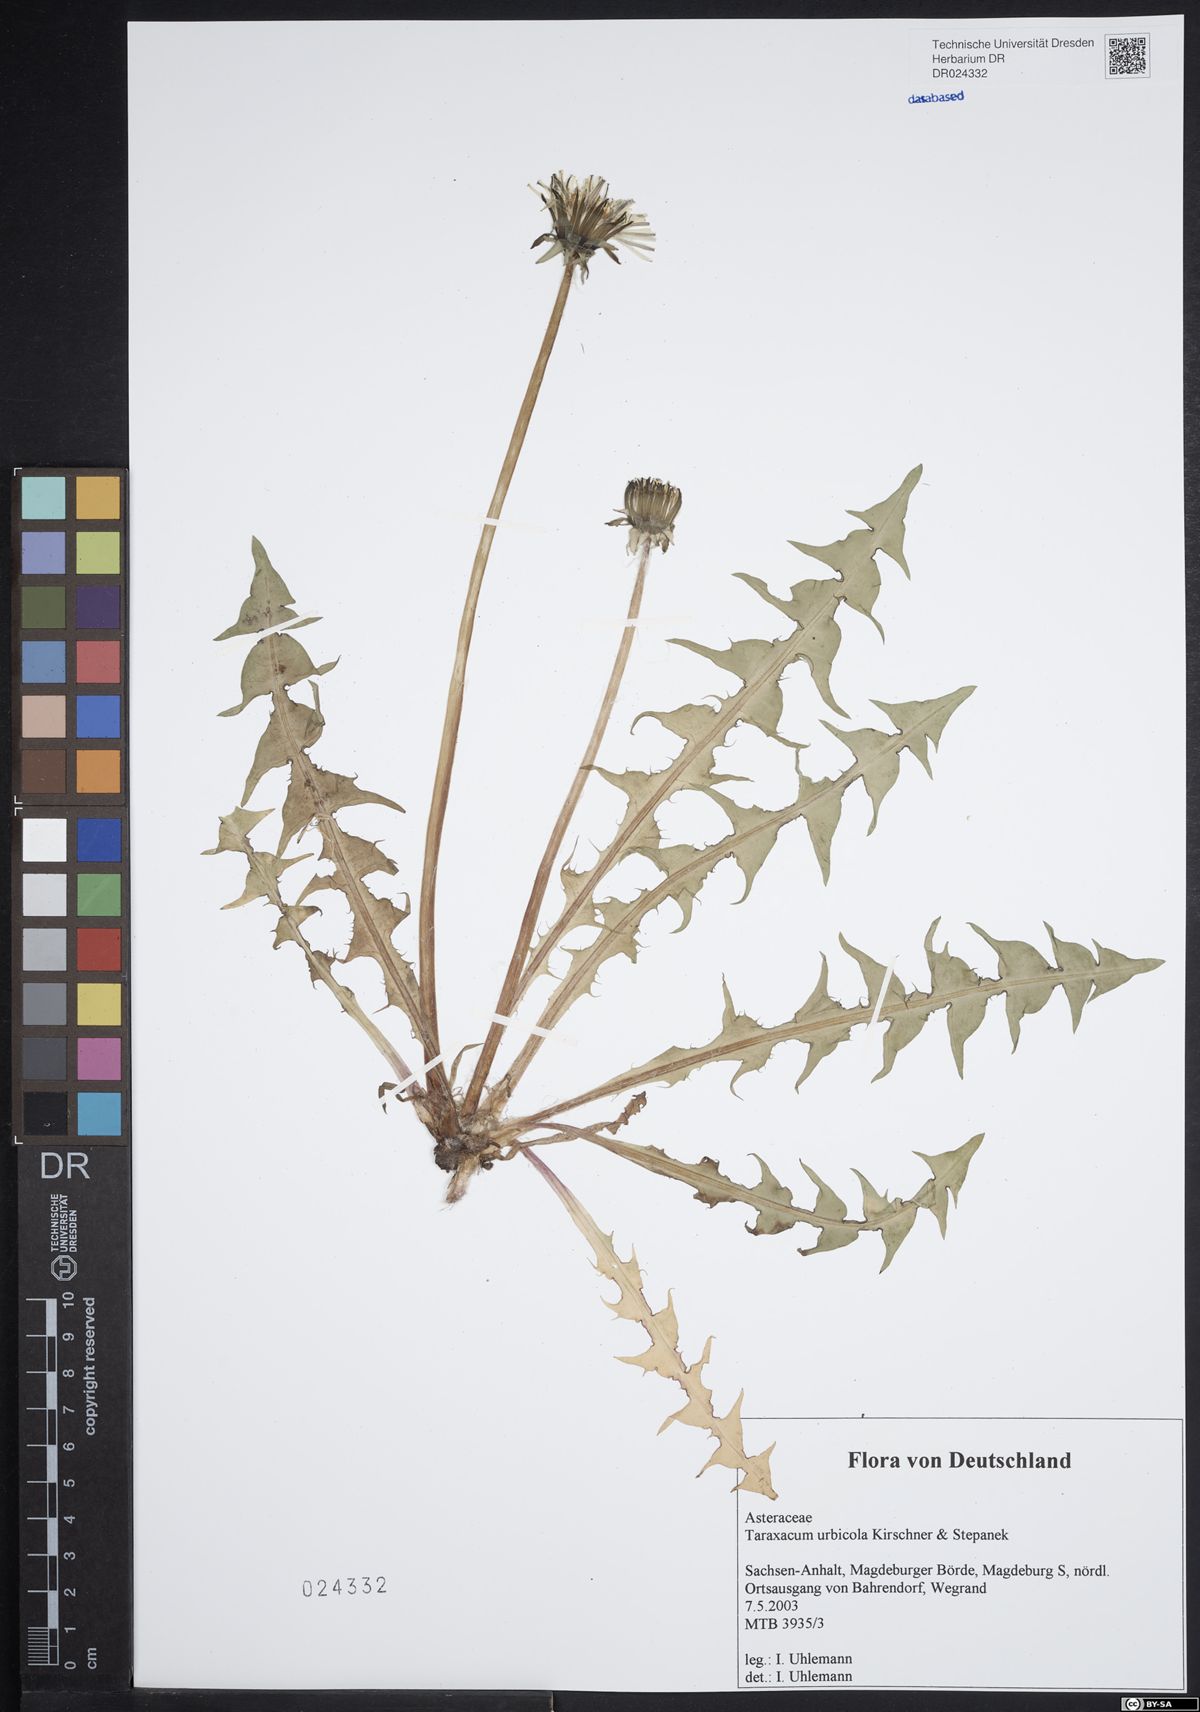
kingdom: Plantae
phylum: Tracheophyta
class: Magnoliopsida
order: Asterales
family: Asteraceae
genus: Taraxacum
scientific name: Taraxacum urbicola
